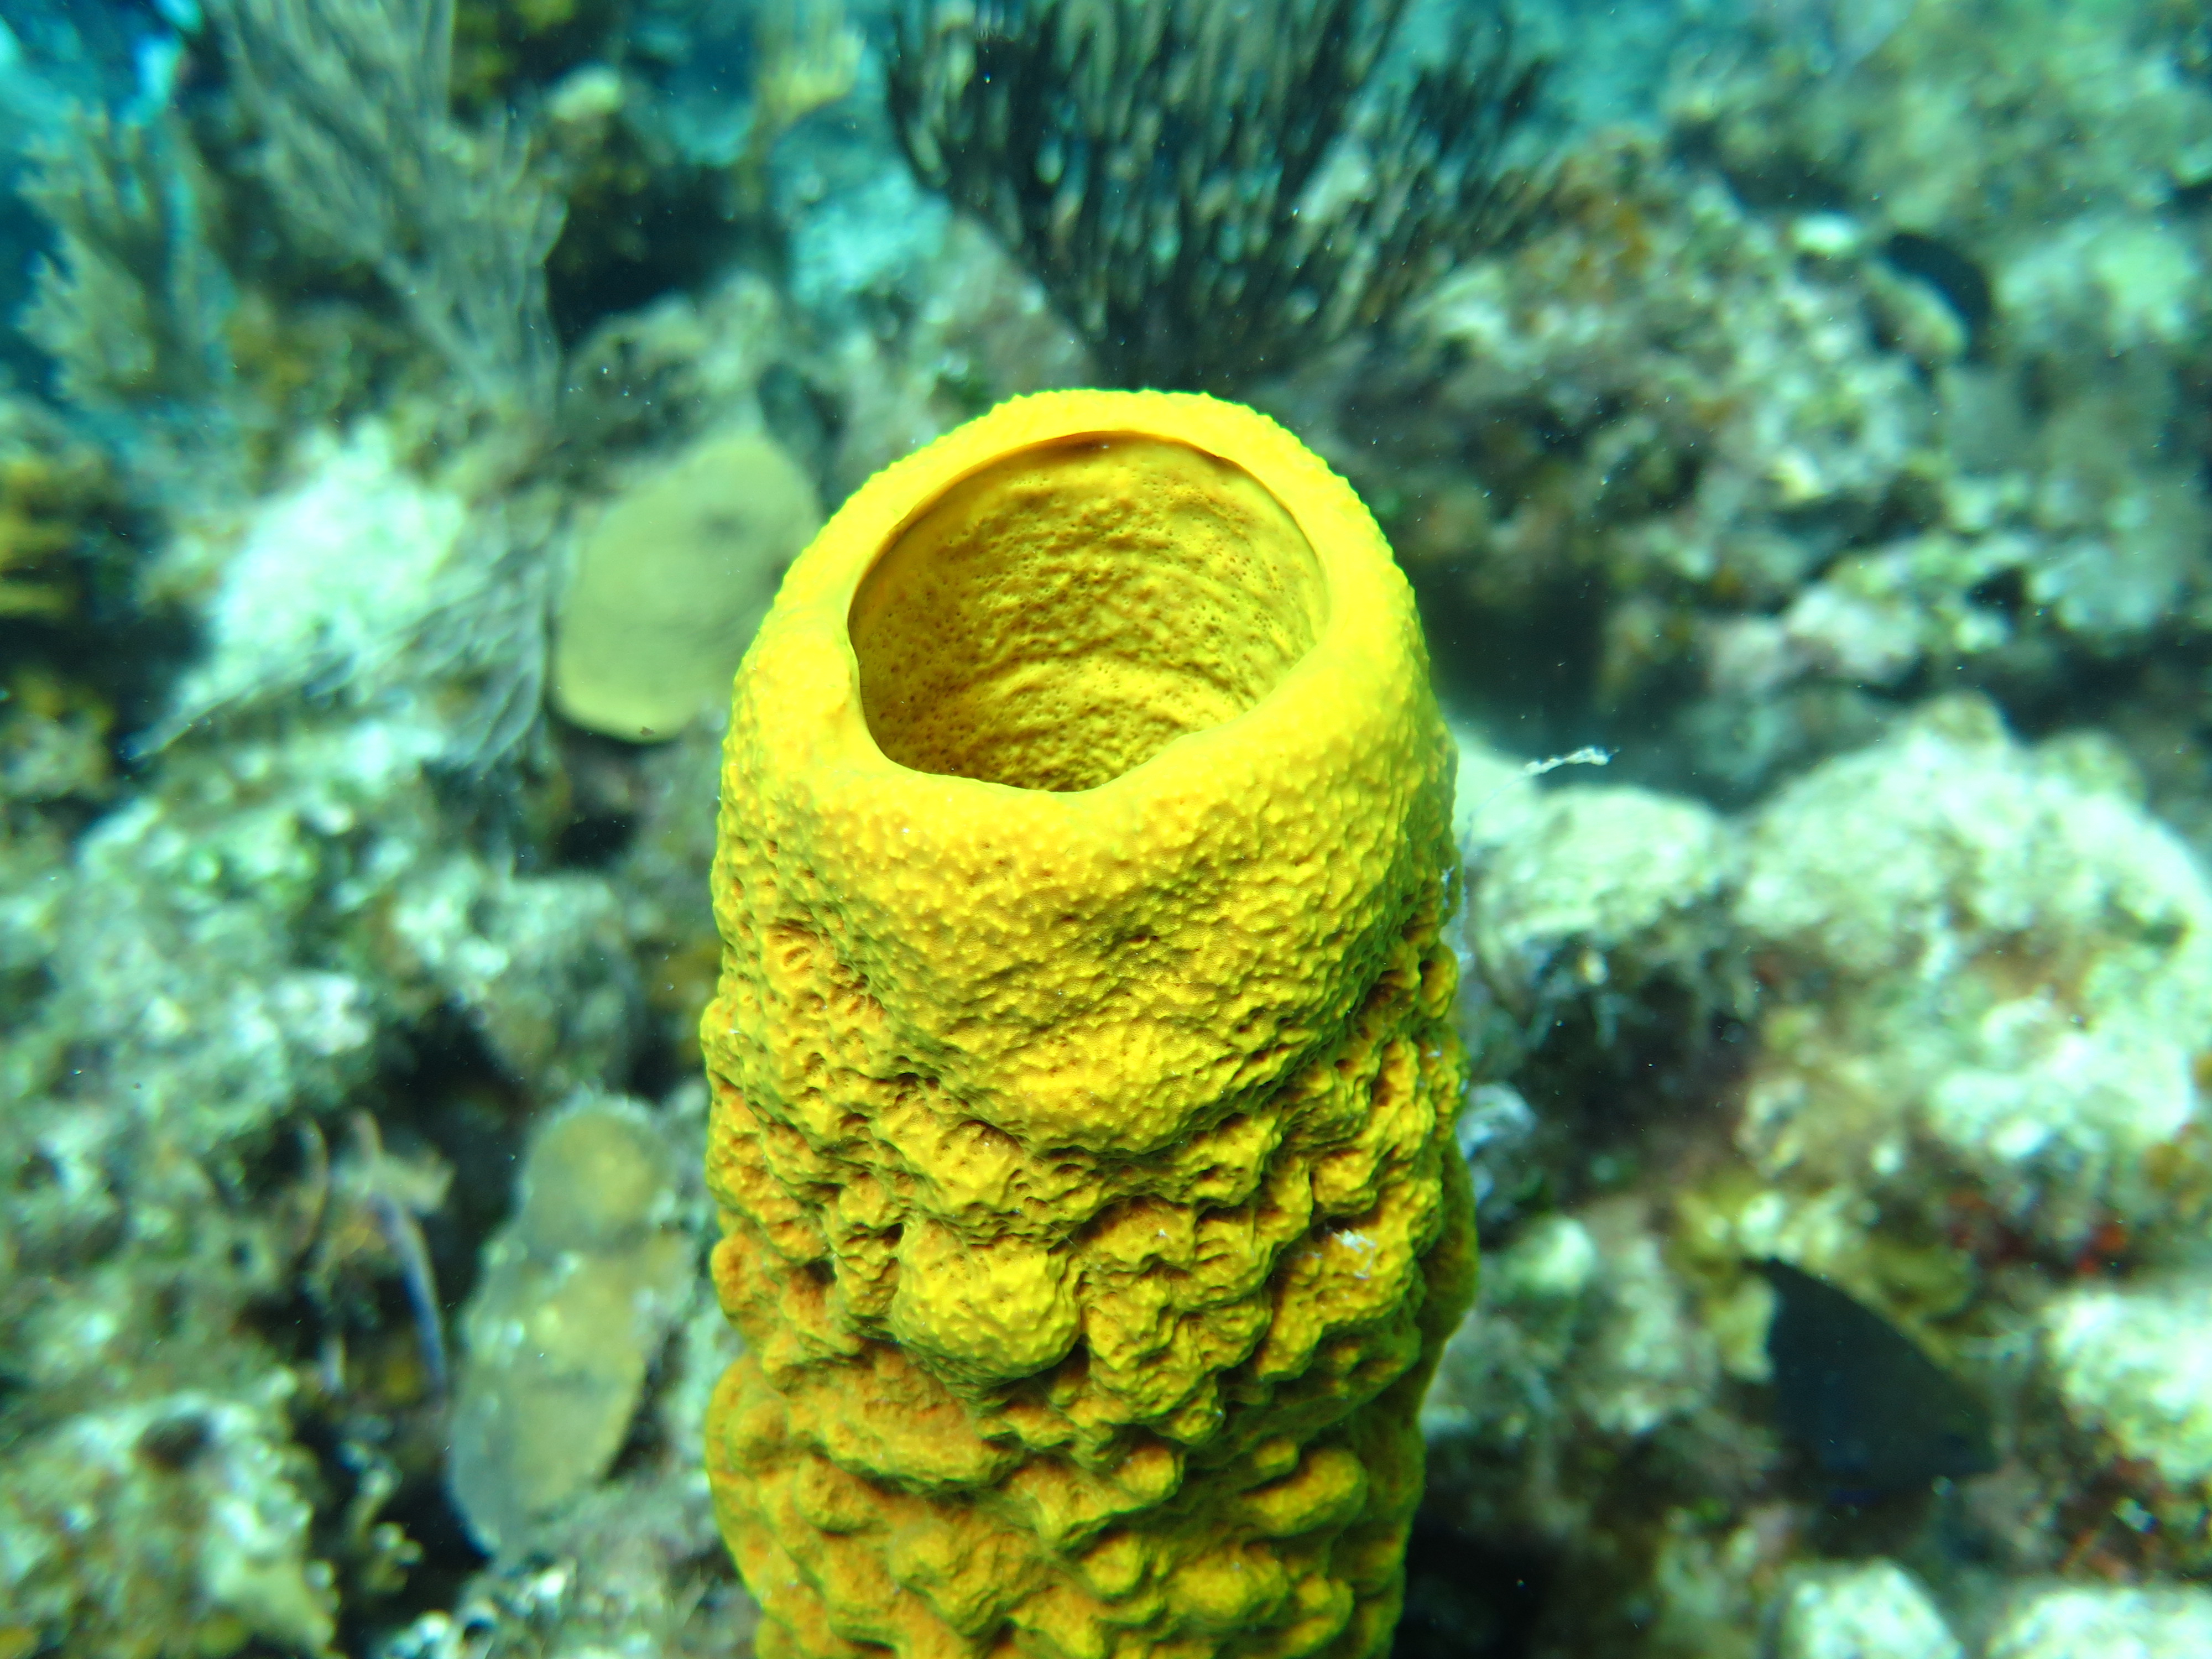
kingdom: Animalia
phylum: Porifera
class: Demospongiae
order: Verongiida
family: Aplysinidae
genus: Aplysina
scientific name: Aplysina fistularis
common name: Candle sponge
